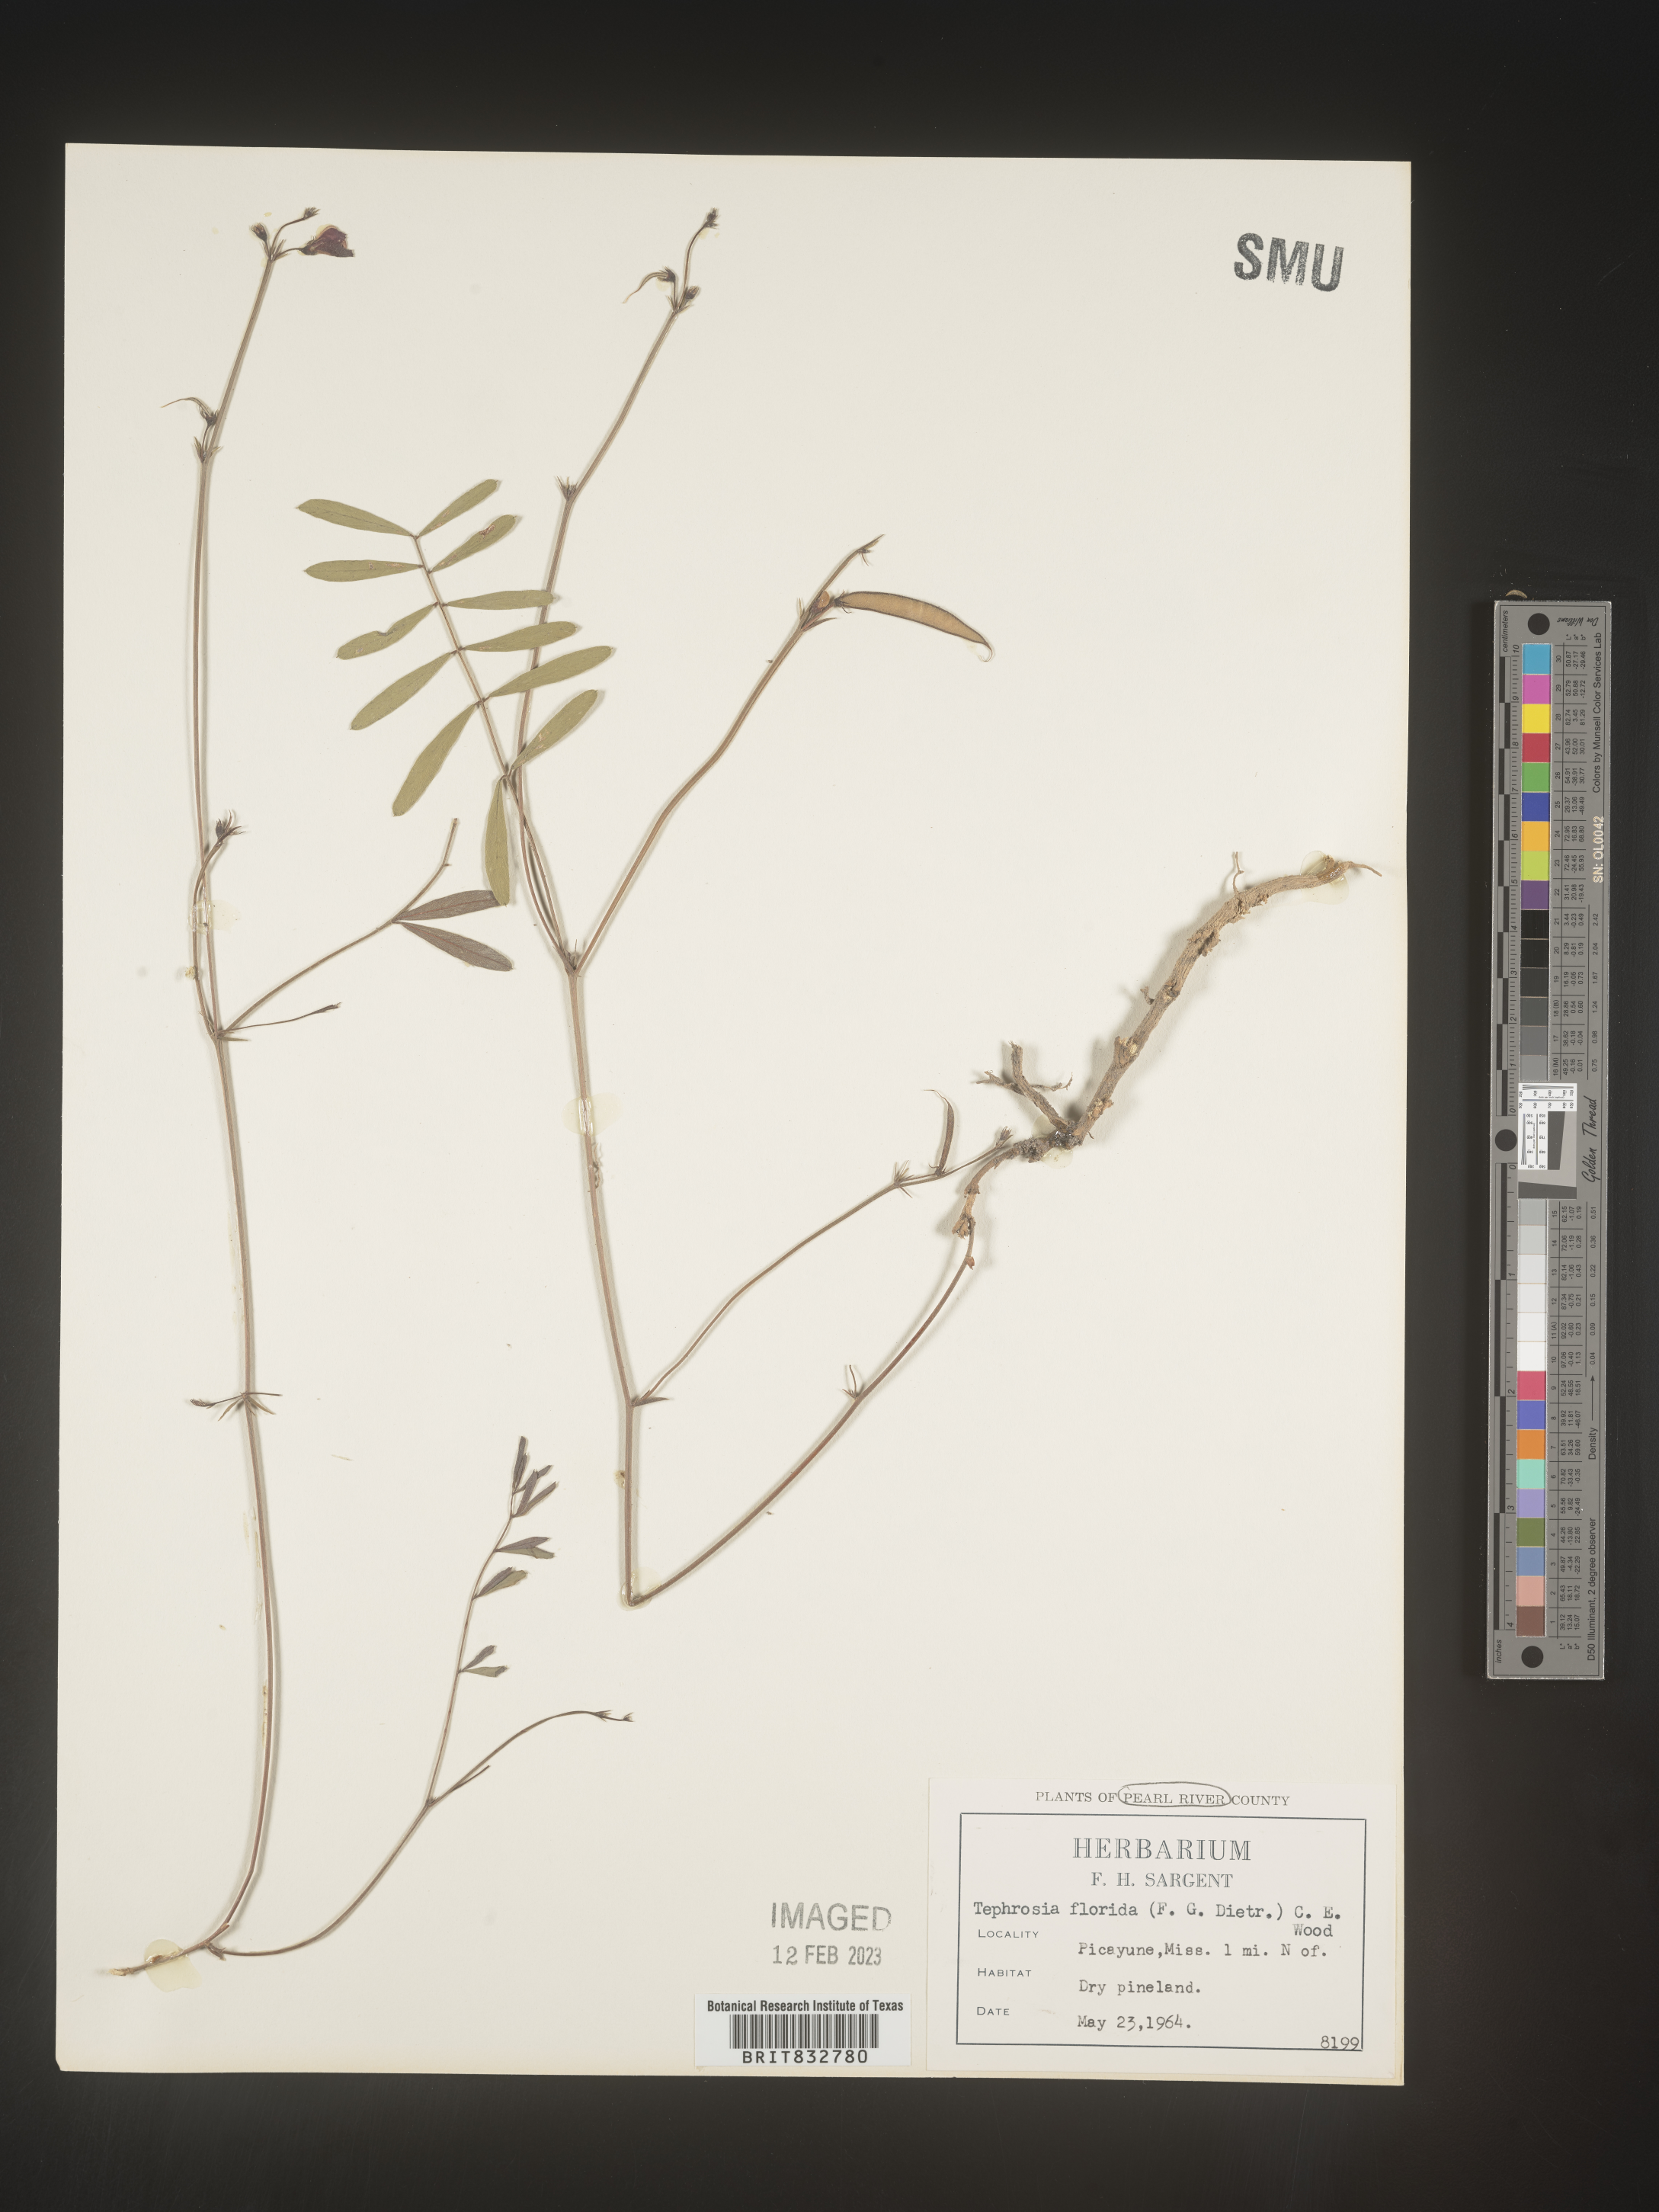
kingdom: Plantae
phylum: Tracheophyta
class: Magnoliopsida
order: Fabales
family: Fabaceae
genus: Tephrosia
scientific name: Tephrosia florida
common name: Florida hoary-pea
